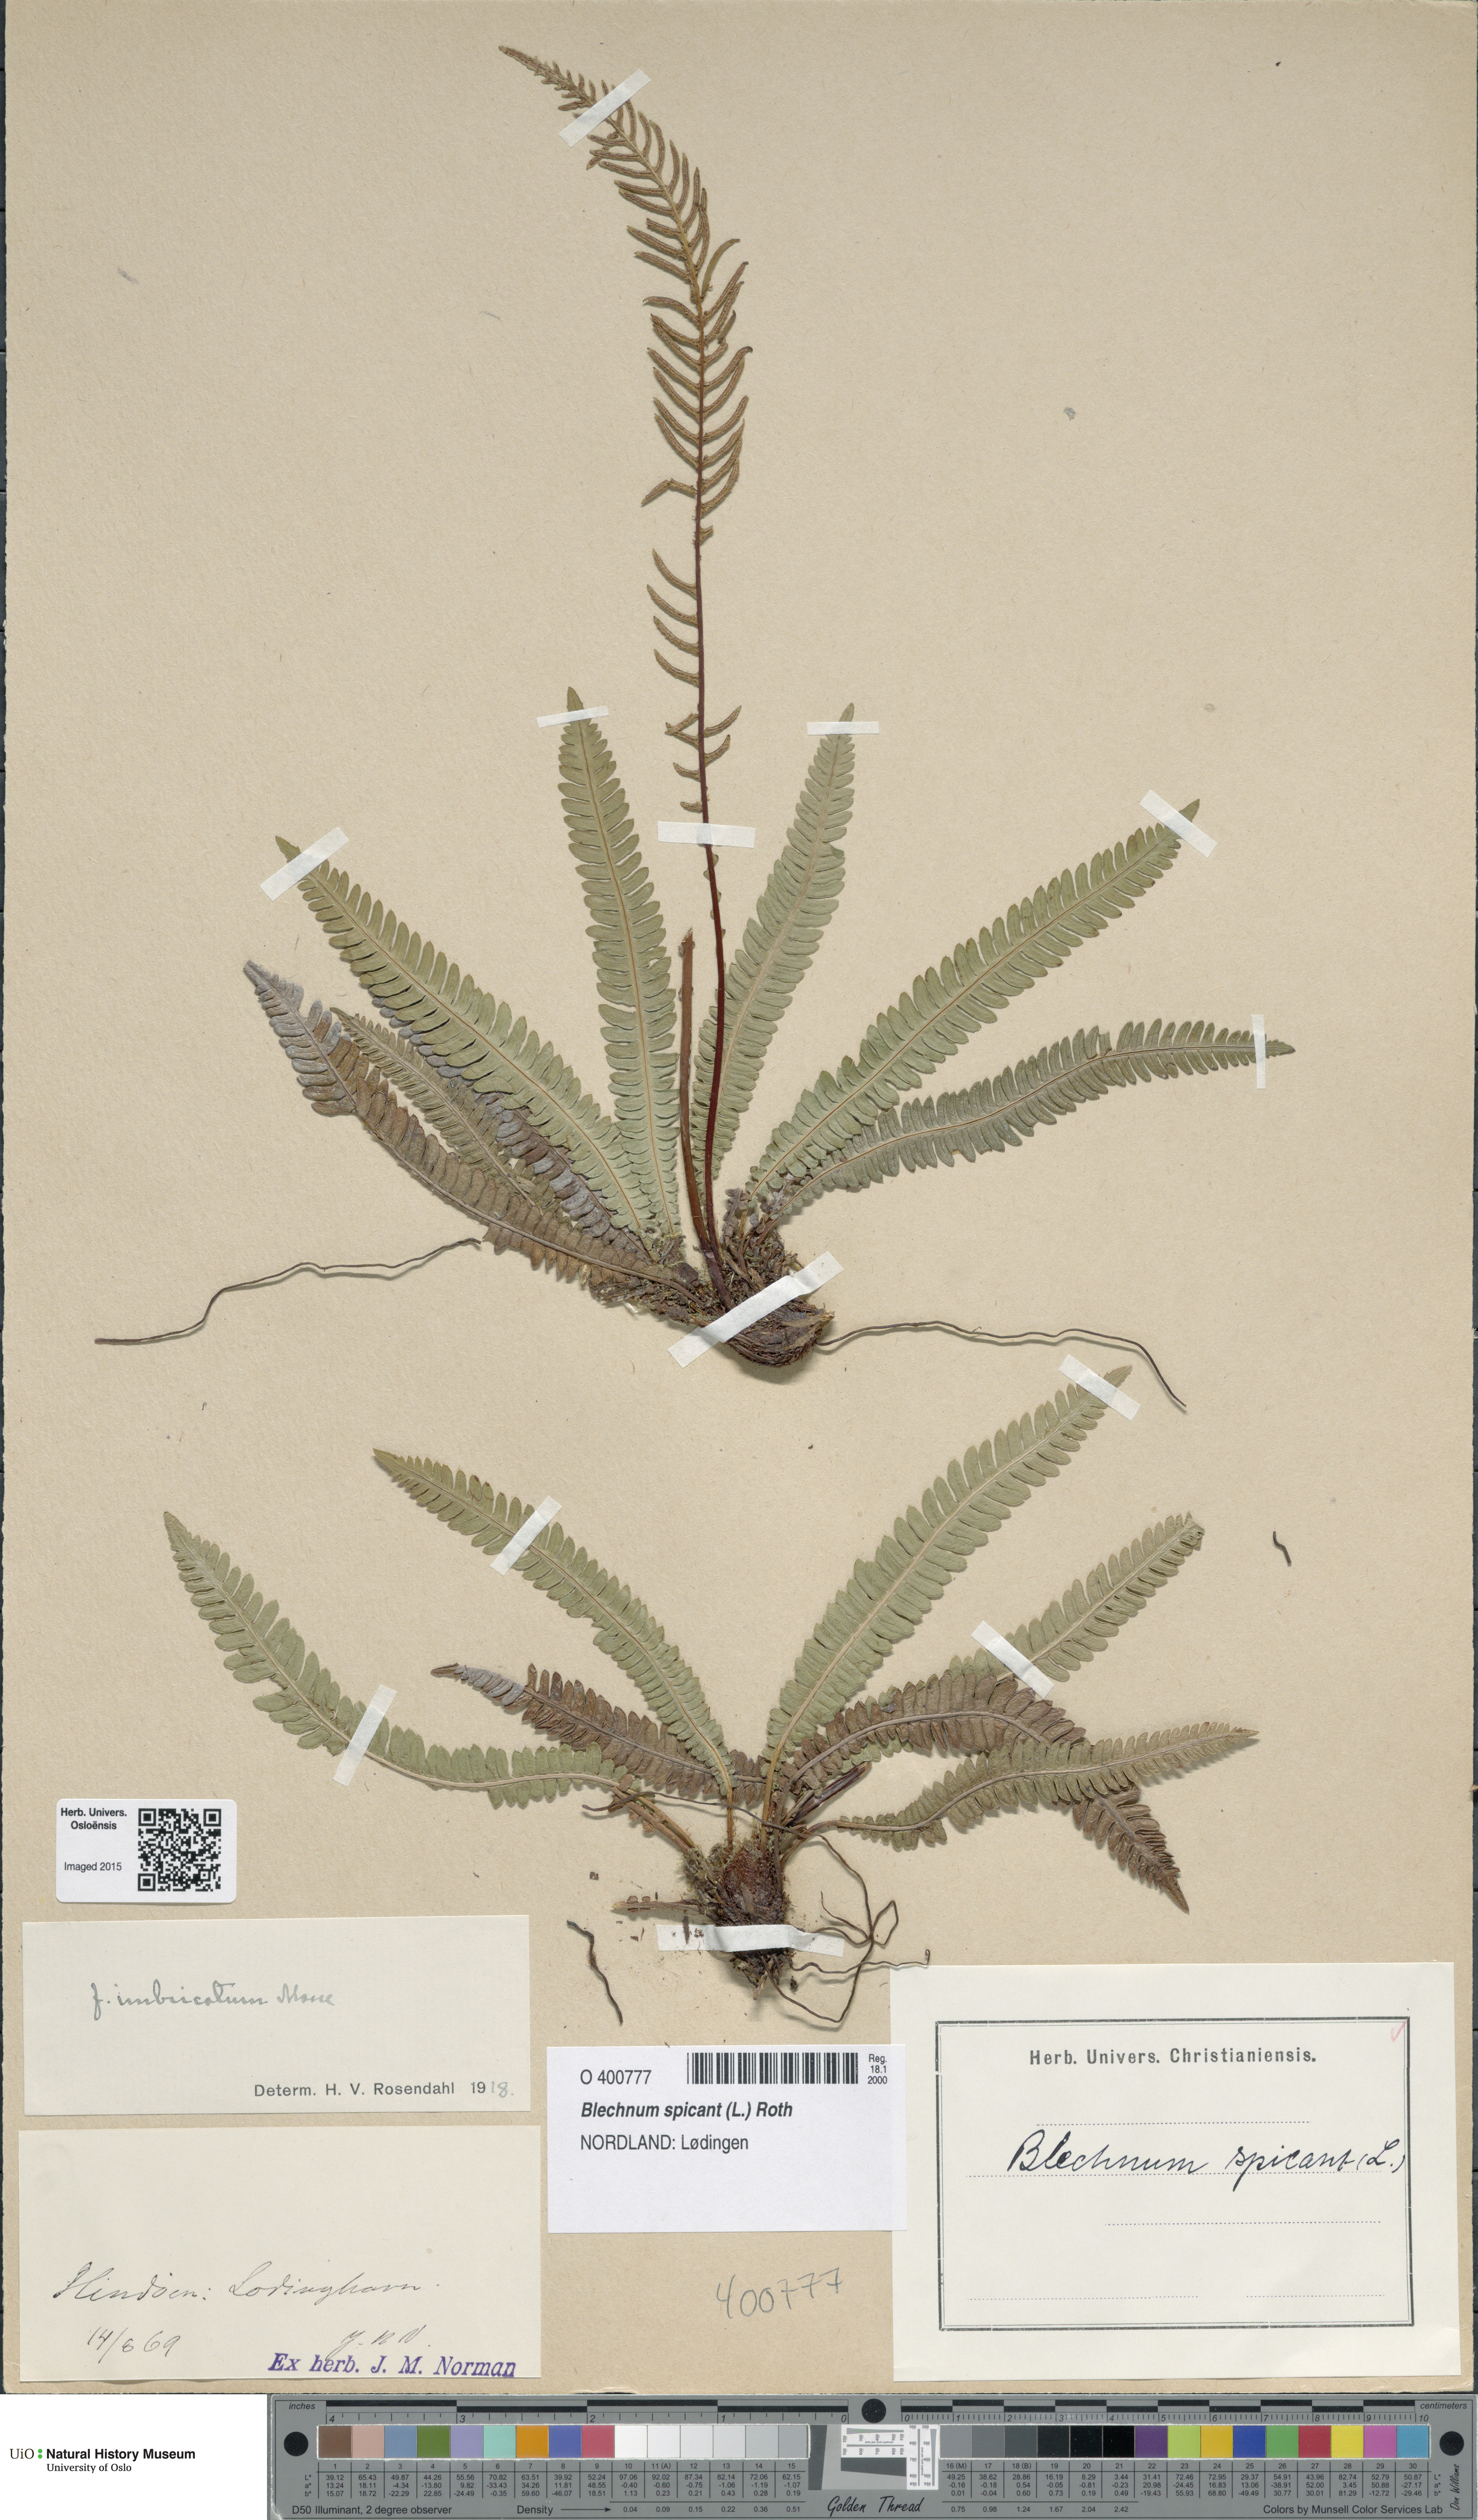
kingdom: Plantae
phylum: Tracheophyta
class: Polypodiopsida
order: Polypodiales
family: Blechnaceae
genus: Struthiopteris
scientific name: Struthiopteris spicant
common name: Deer fern
